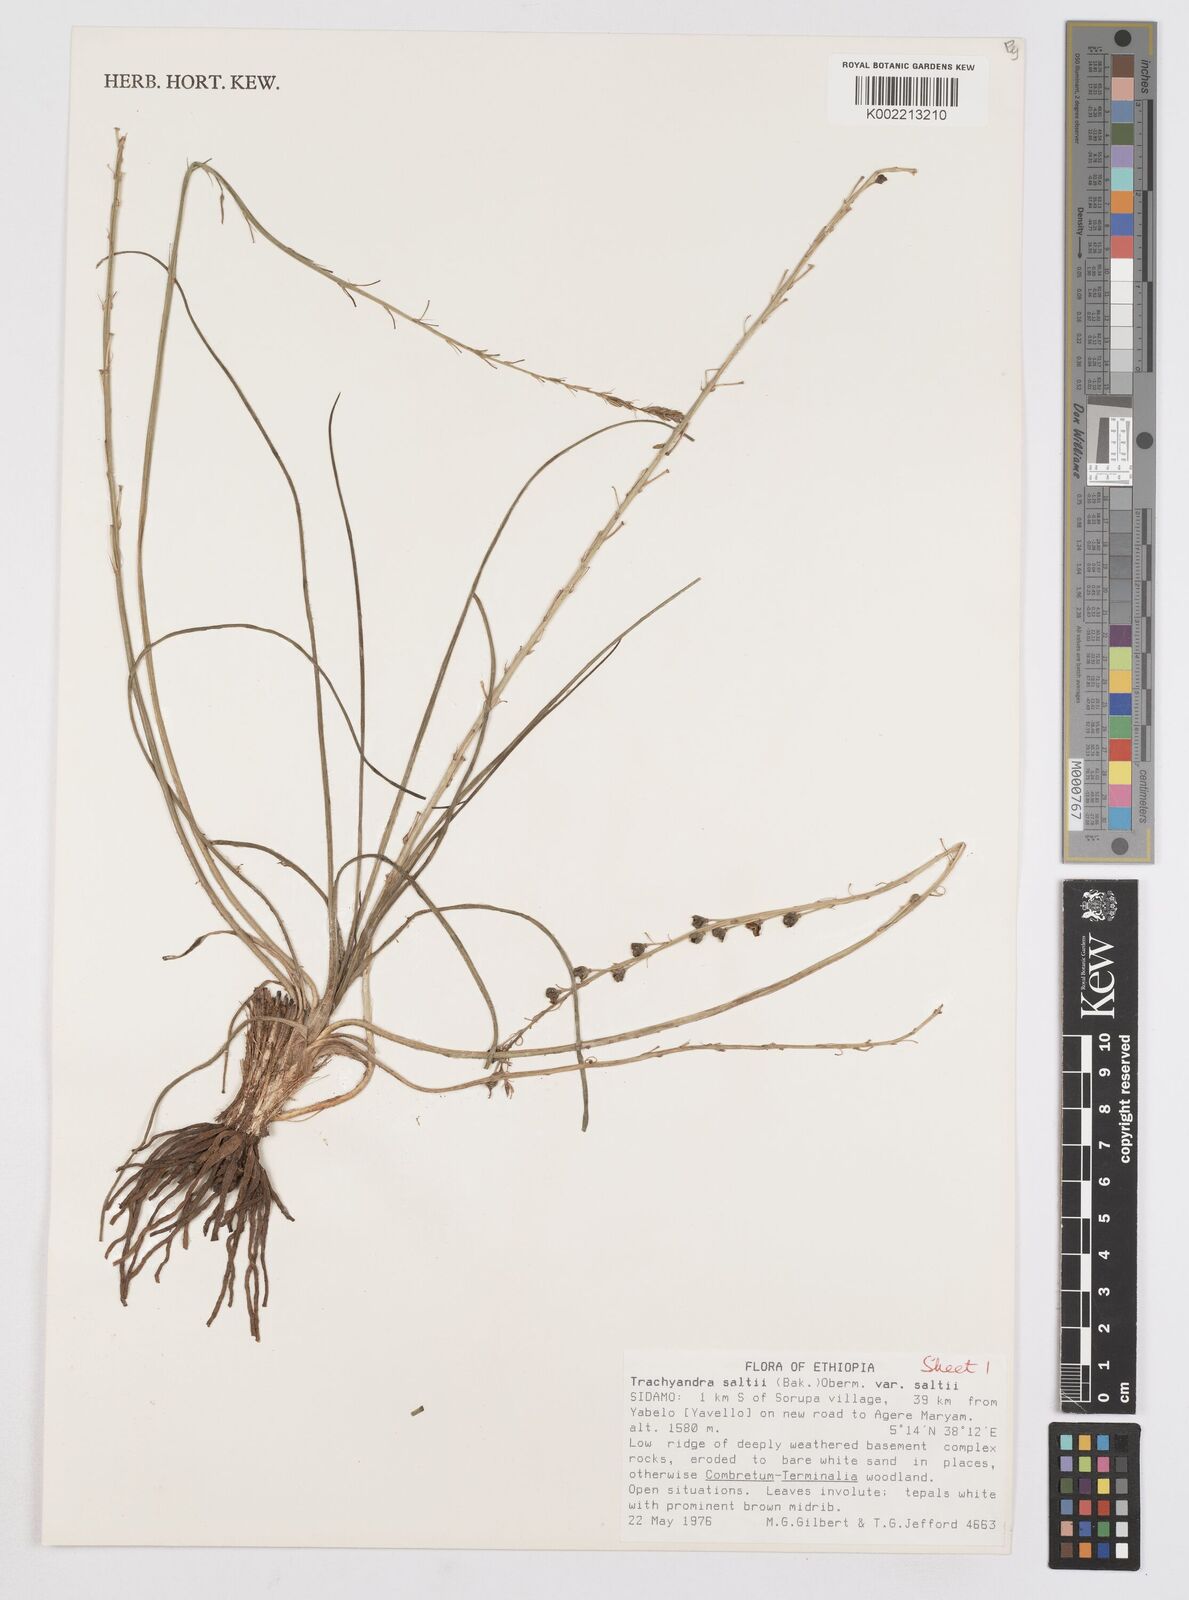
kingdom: Plantae
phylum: Tracheophyta
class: Liliopsida
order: Asparagales
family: Asphodelaceae
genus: Trachyandra
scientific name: Trachyandra saltii
